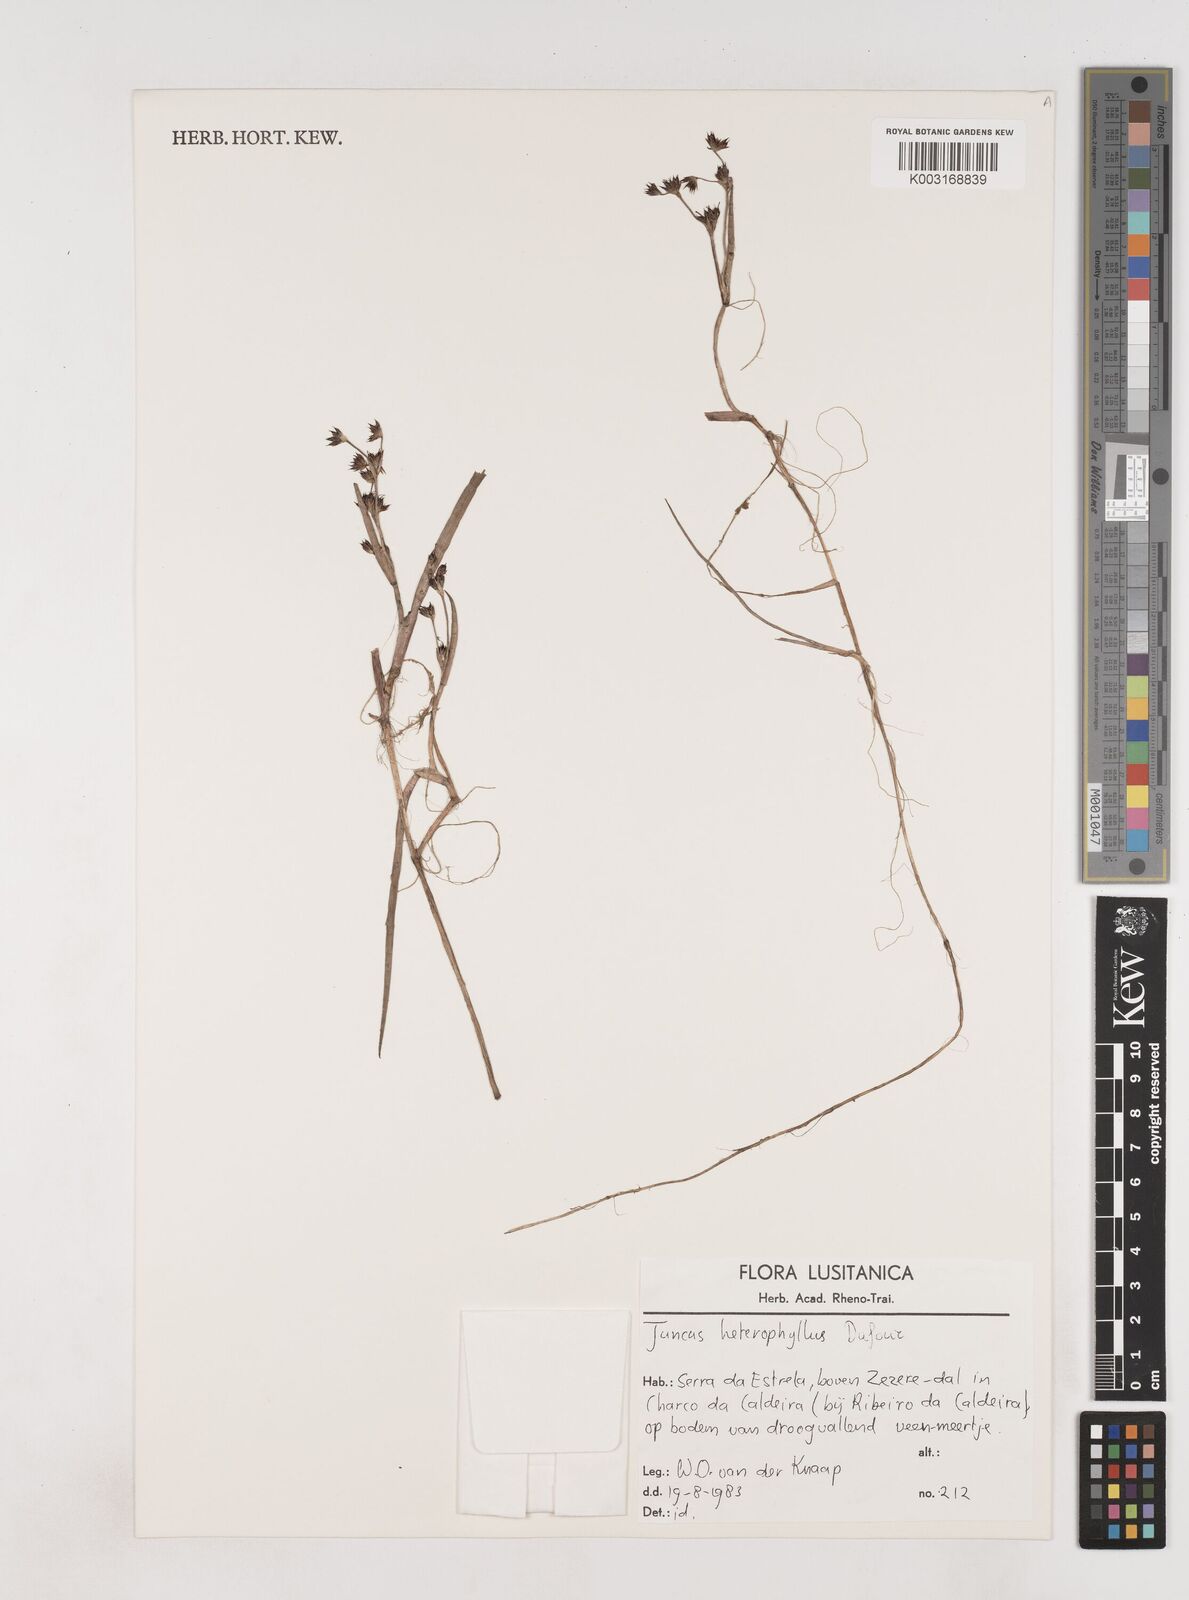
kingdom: Plantae
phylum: Tracheophyta
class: Liliopsida
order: Poales
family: Juncaceae
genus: Juncus
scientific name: Juncus heterophyllus
